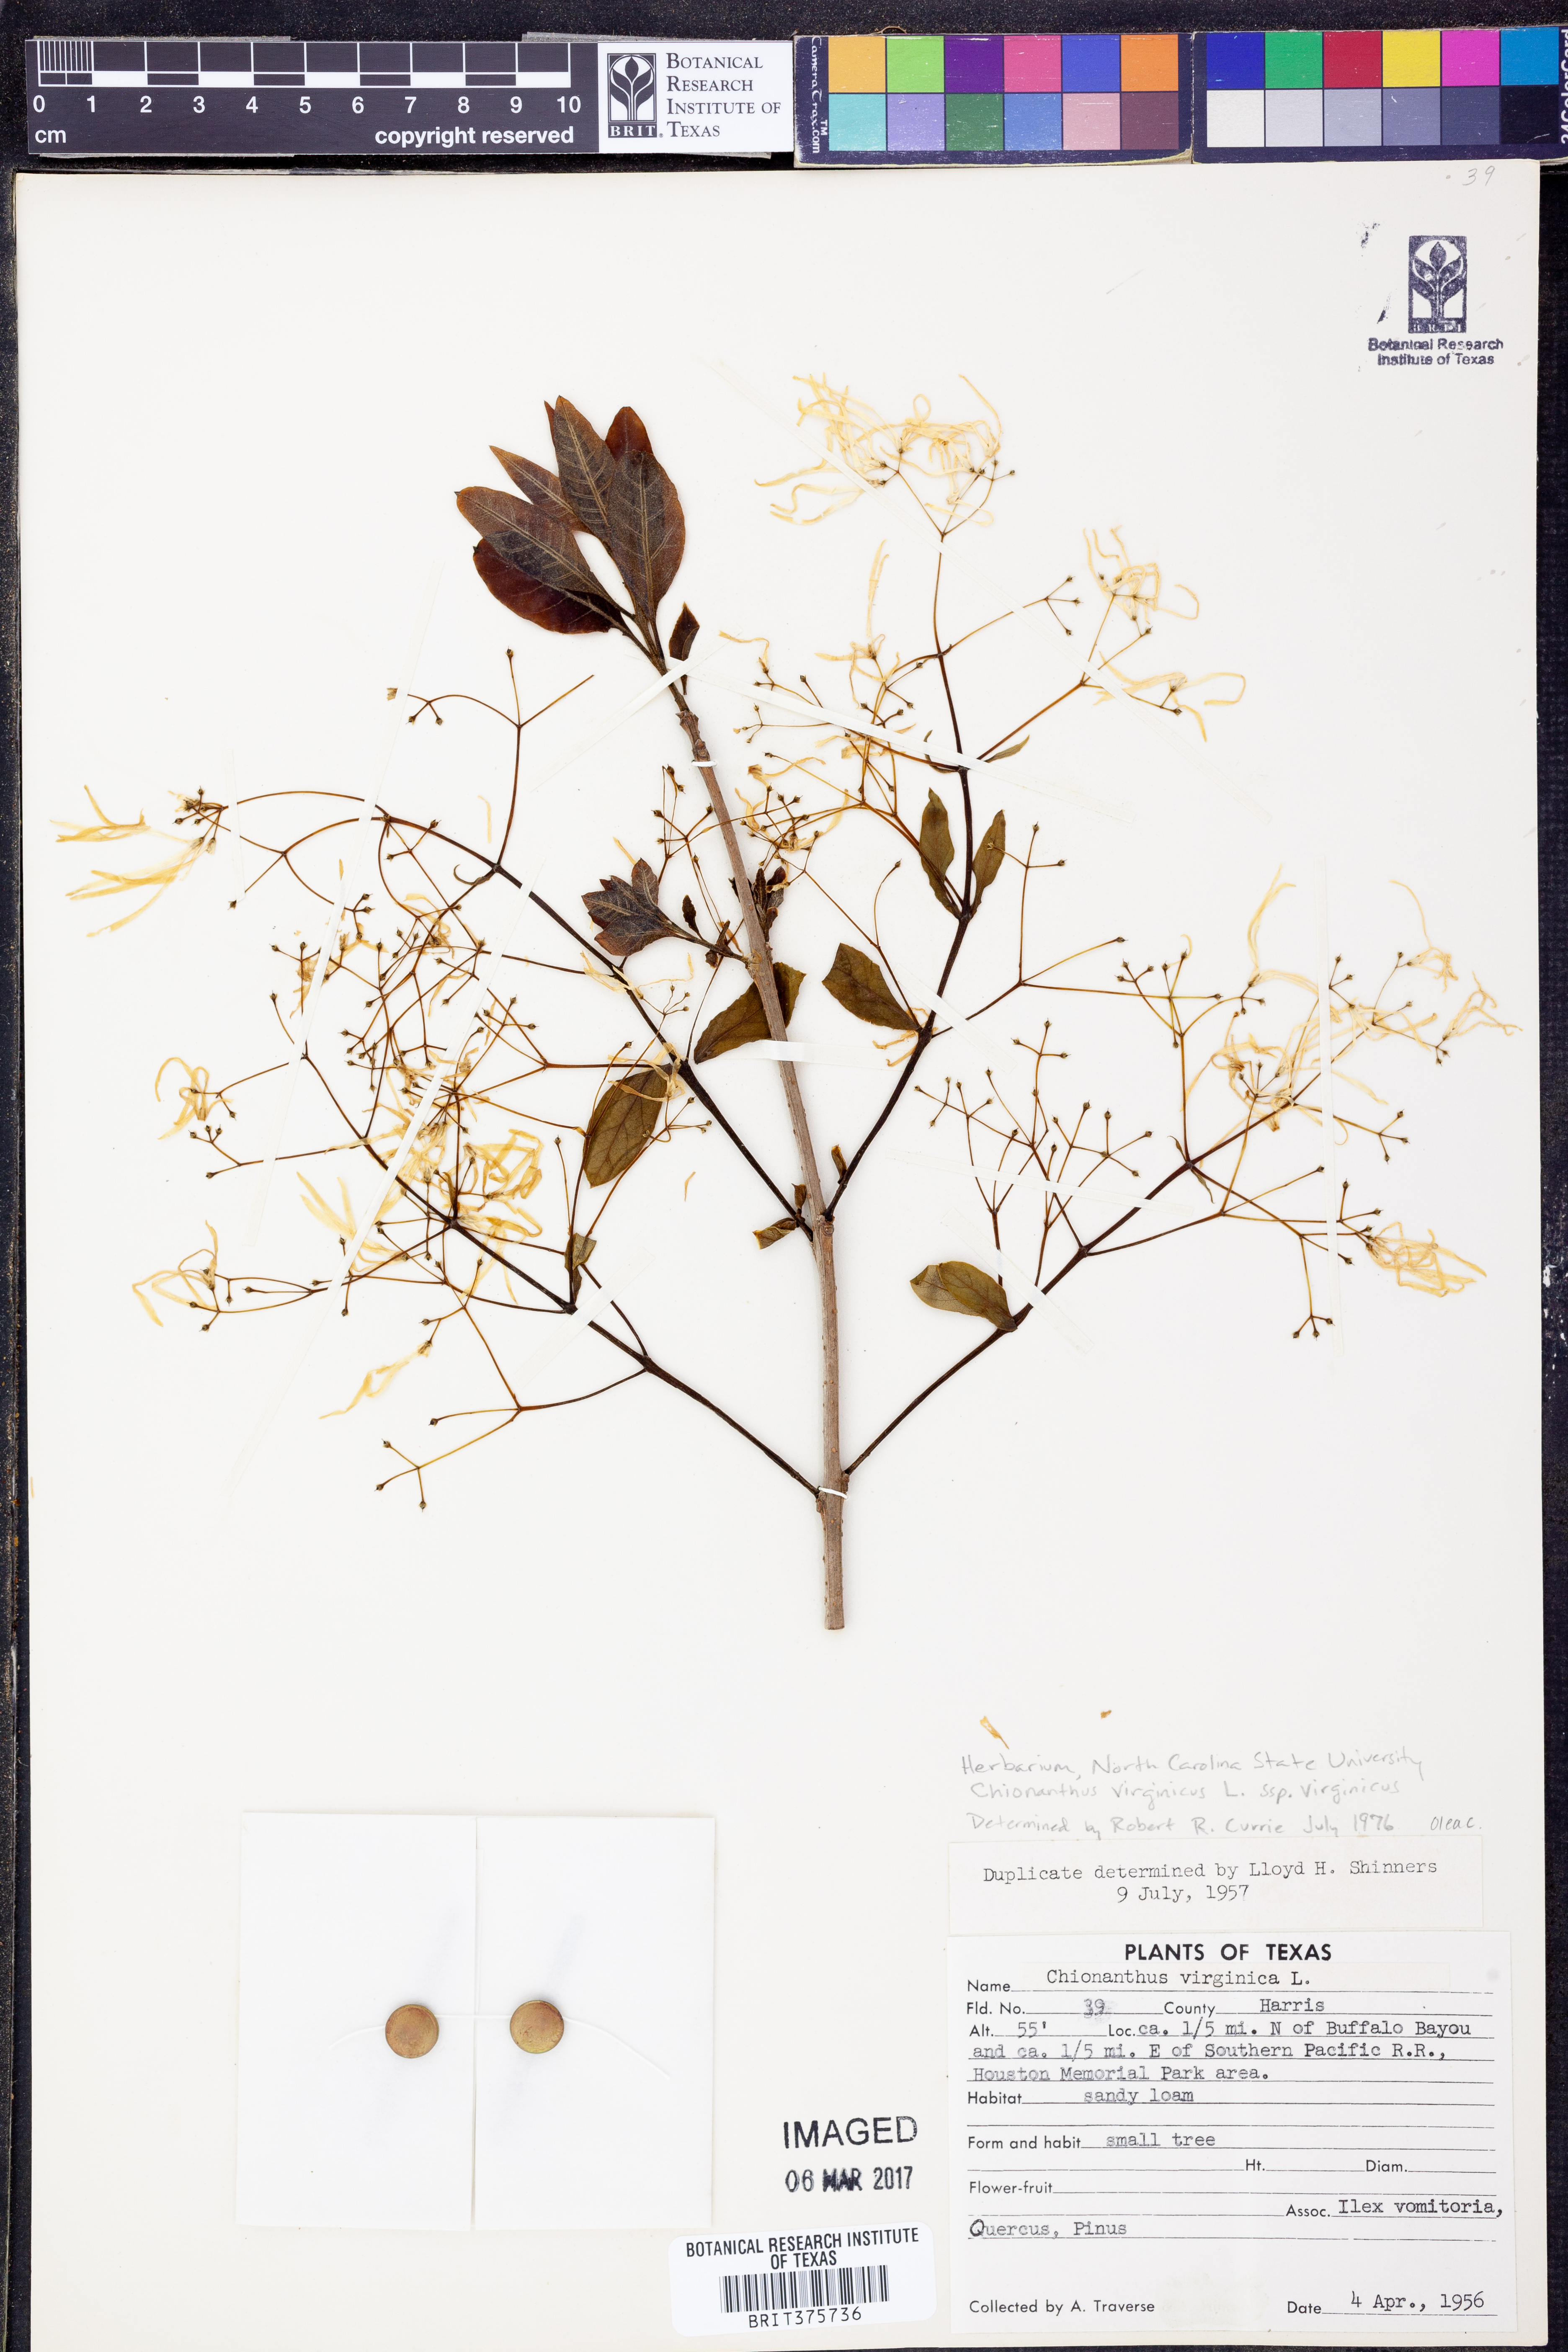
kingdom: Plantae
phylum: Tracheophyta
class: Magnoliopsida
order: Lamiales
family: Oleaceae
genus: Chionanthus
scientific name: Chionanthus virginicus
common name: American fringetree
